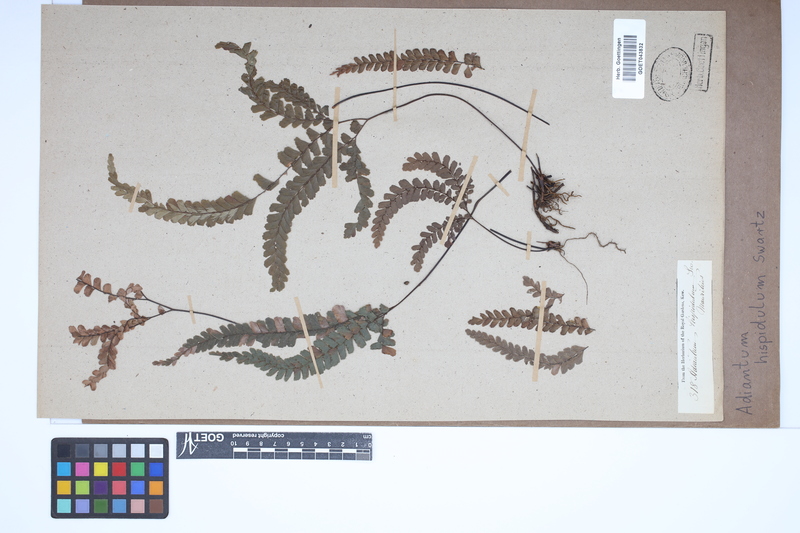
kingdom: Plantae
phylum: Tracheophyta
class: Polypodiopsida
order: Polypodiales
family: Pteridaceae
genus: Adiantum
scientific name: Adiantum hispidulum
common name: Rough maidenhair
